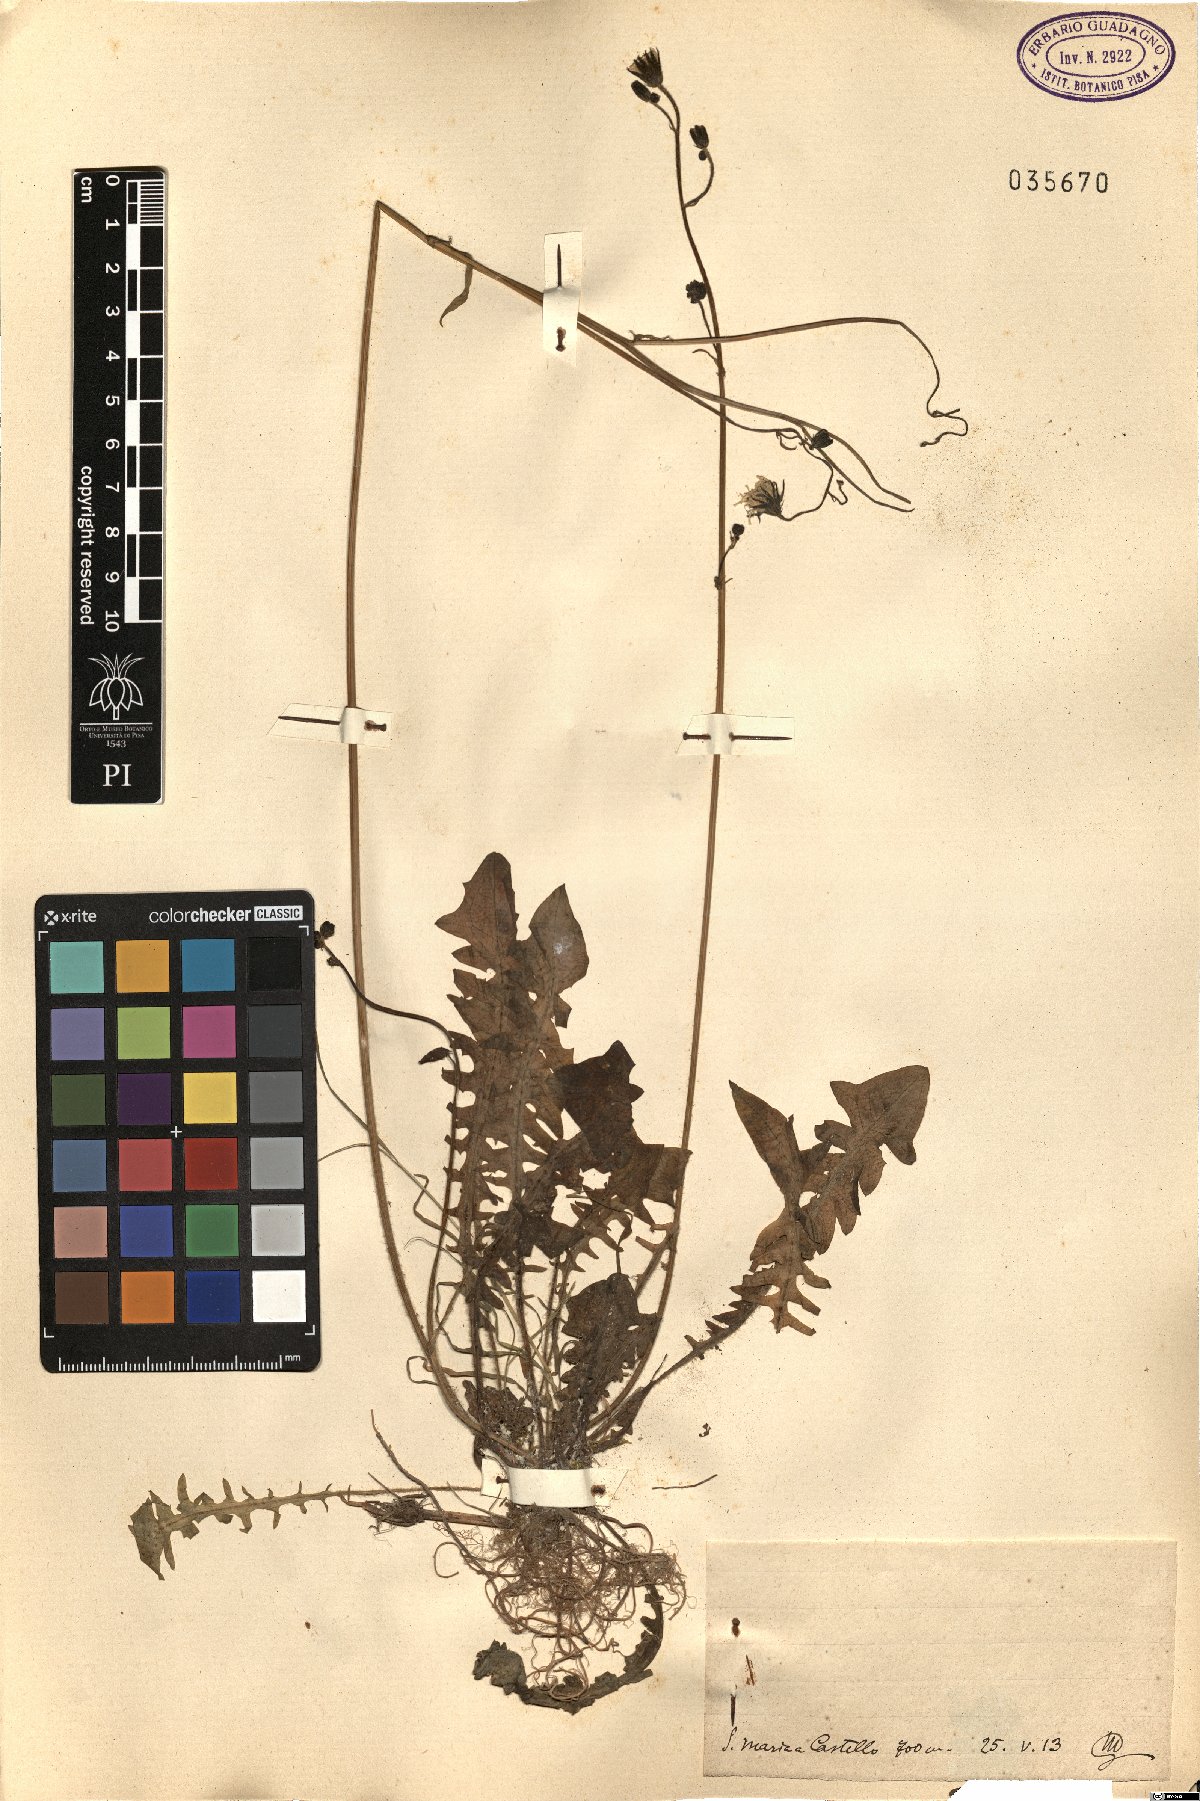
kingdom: Plantae
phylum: Tracheophyta
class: Magnoliopsida
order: Asterales
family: Asteraceae
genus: Crepis
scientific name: Crepis
